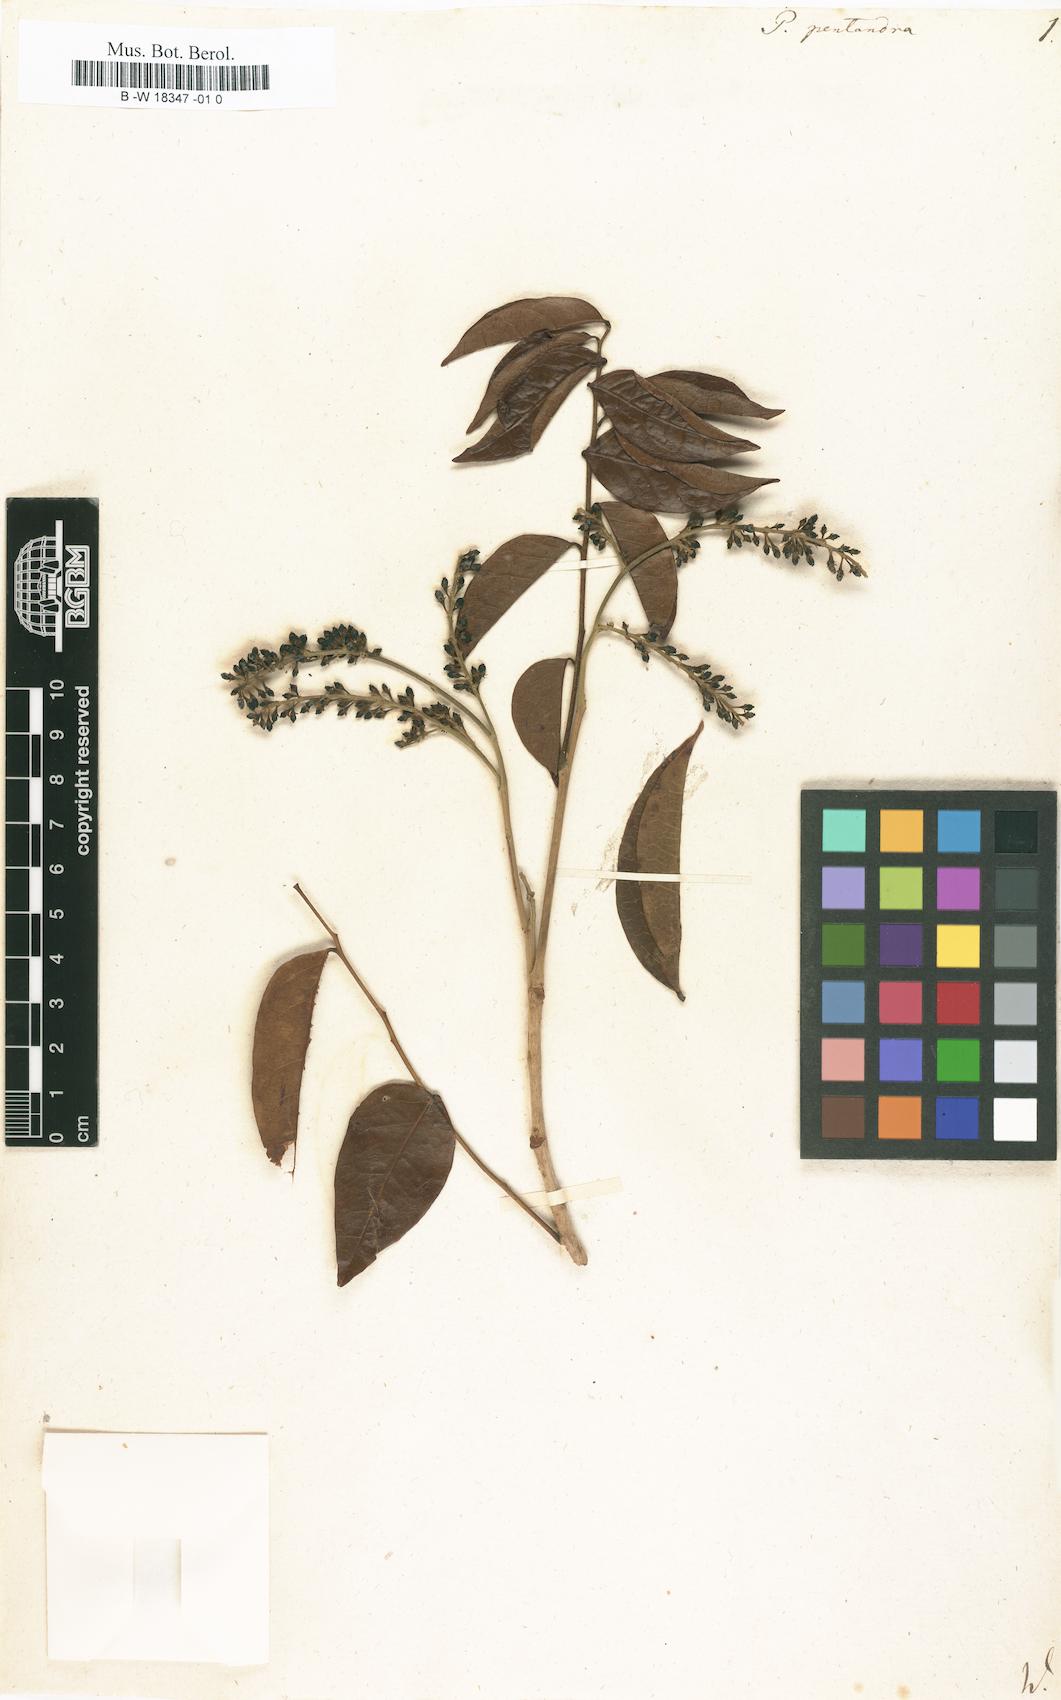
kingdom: Plantae
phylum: Tracheophyta
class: Magnoliopsida
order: Picramniales
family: Picramniaceae
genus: Picramnia
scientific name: Picramnia pentandra
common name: Florida bitterbush
